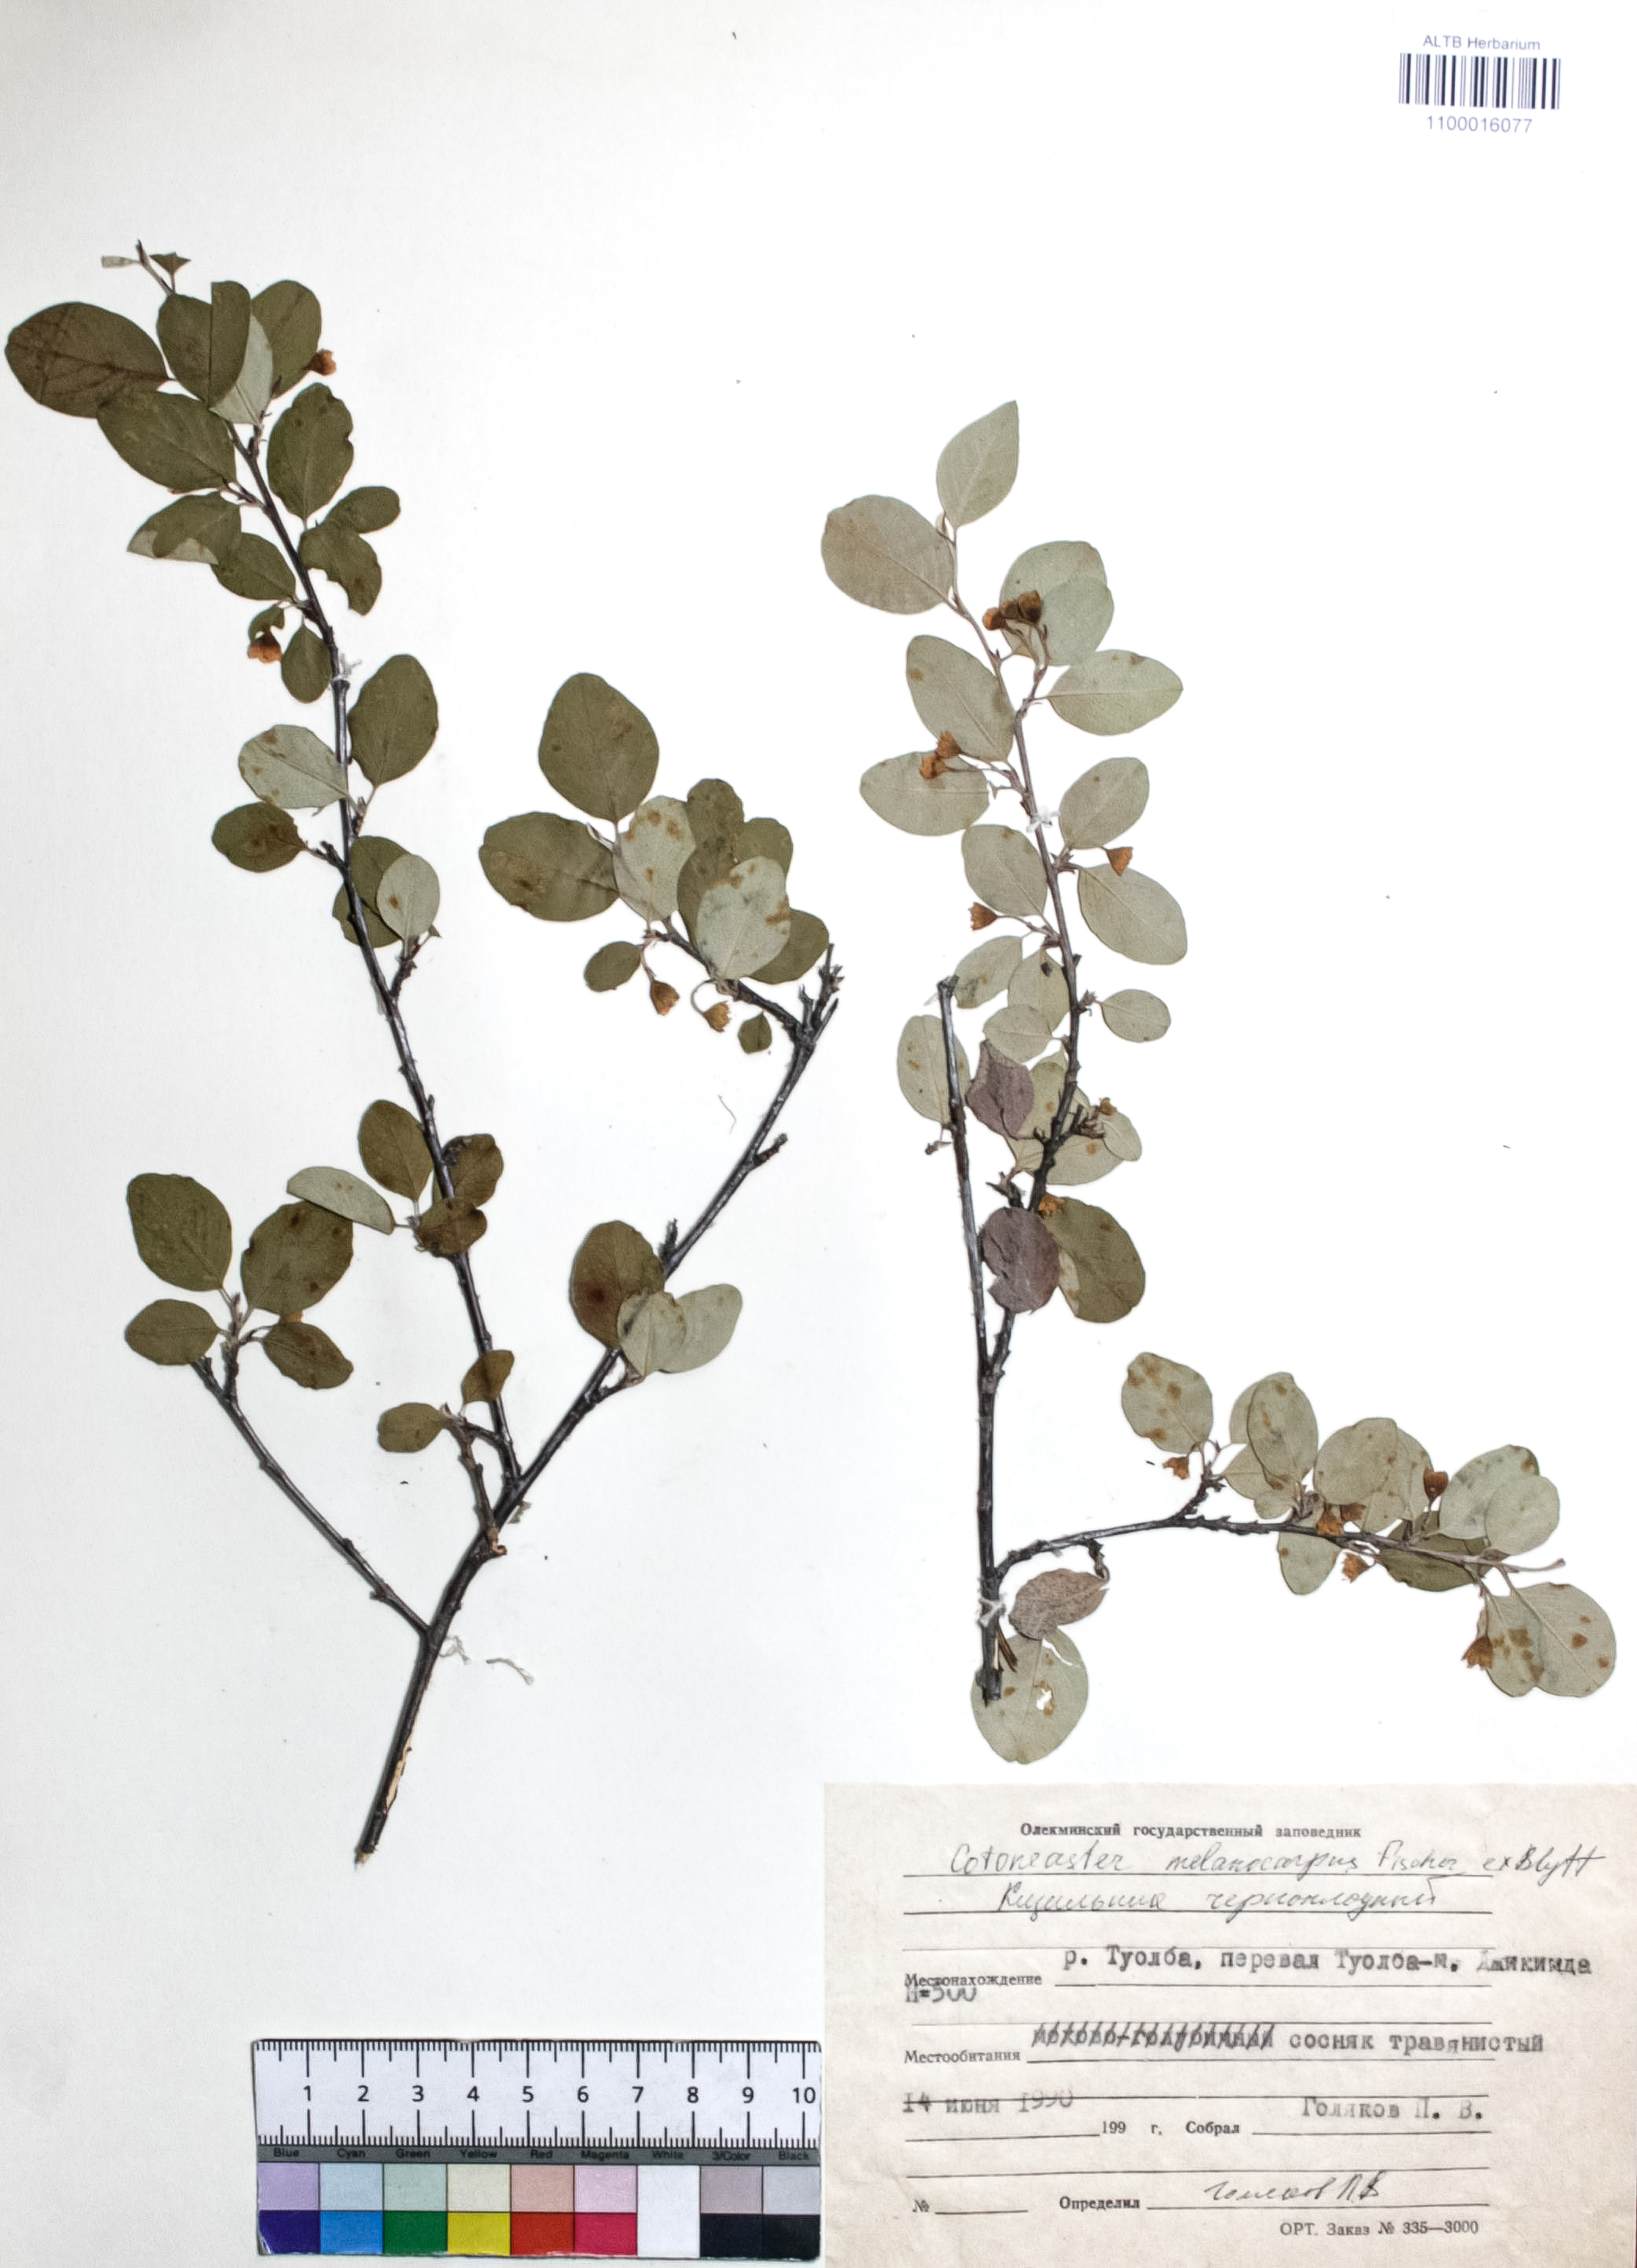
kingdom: Plantae
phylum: Tracheophyta
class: Magnoliopsida
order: Rosales
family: Rosaceae
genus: Cotoneaster
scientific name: Cotoneaster niger
